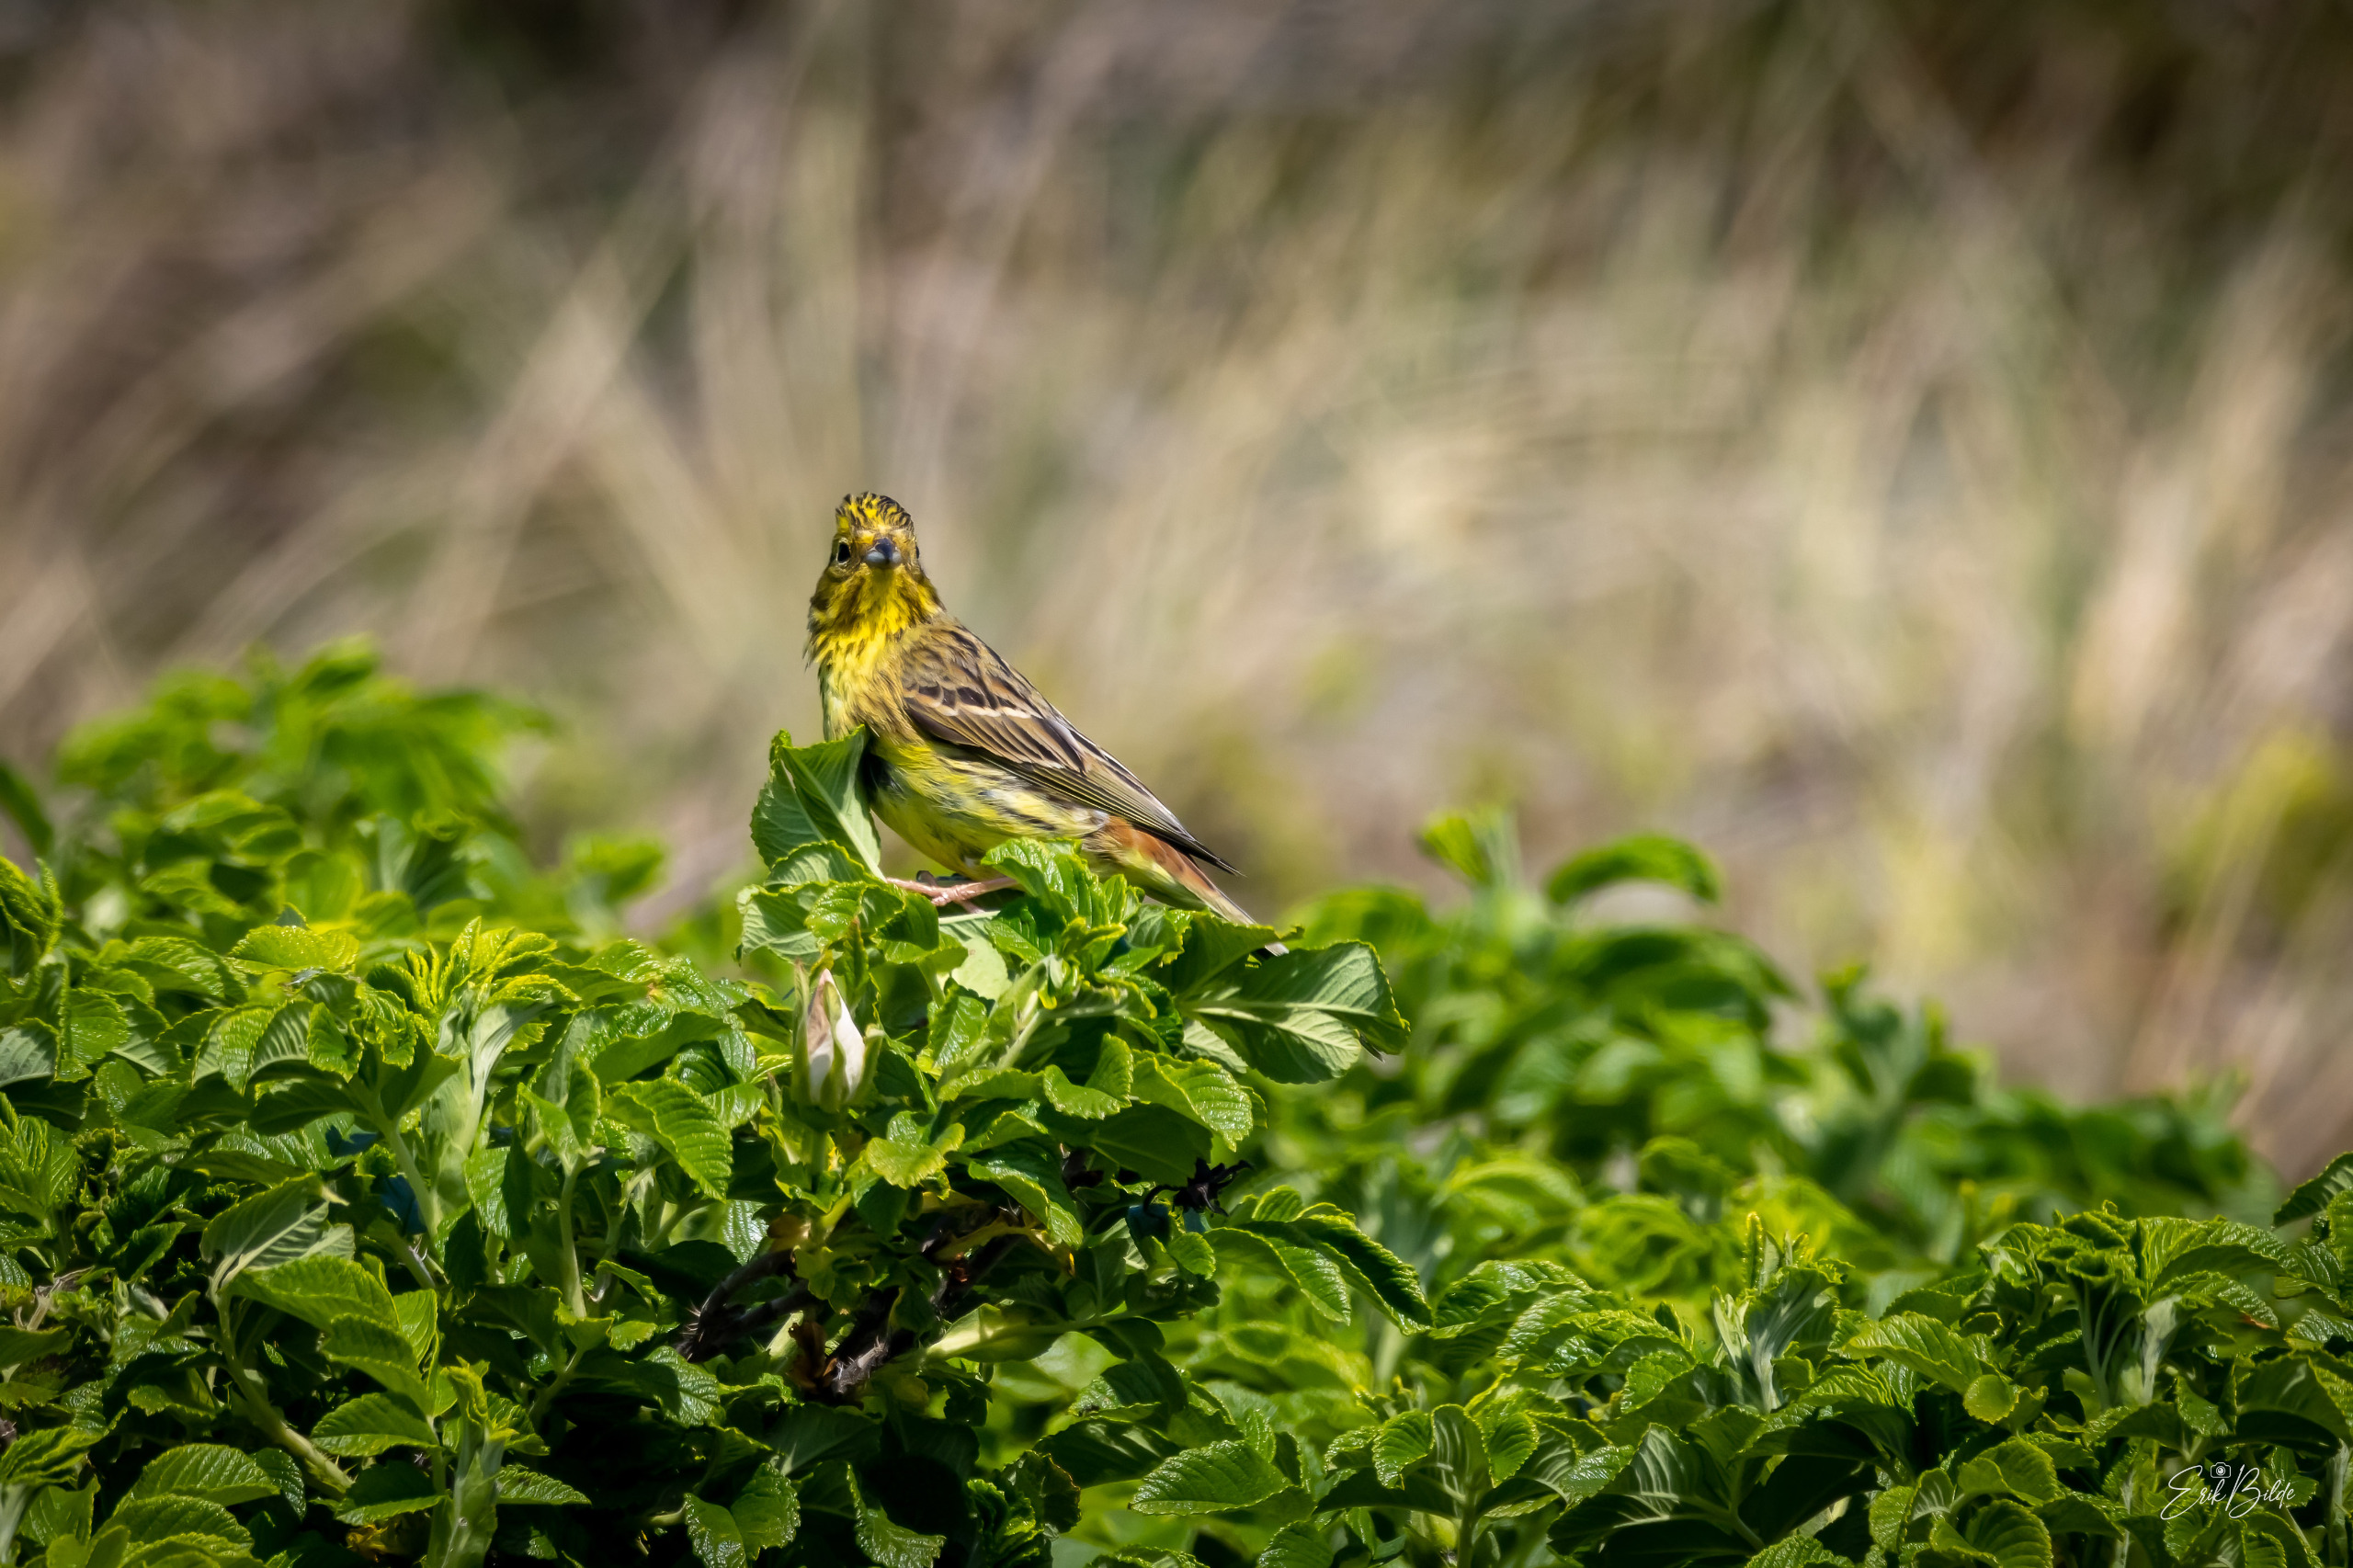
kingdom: Animalia
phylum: Chordata
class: Aves
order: Passeriformes
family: Emberizidae
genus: Emberiza
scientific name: Emberiza citrinella
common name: Gulspurv
